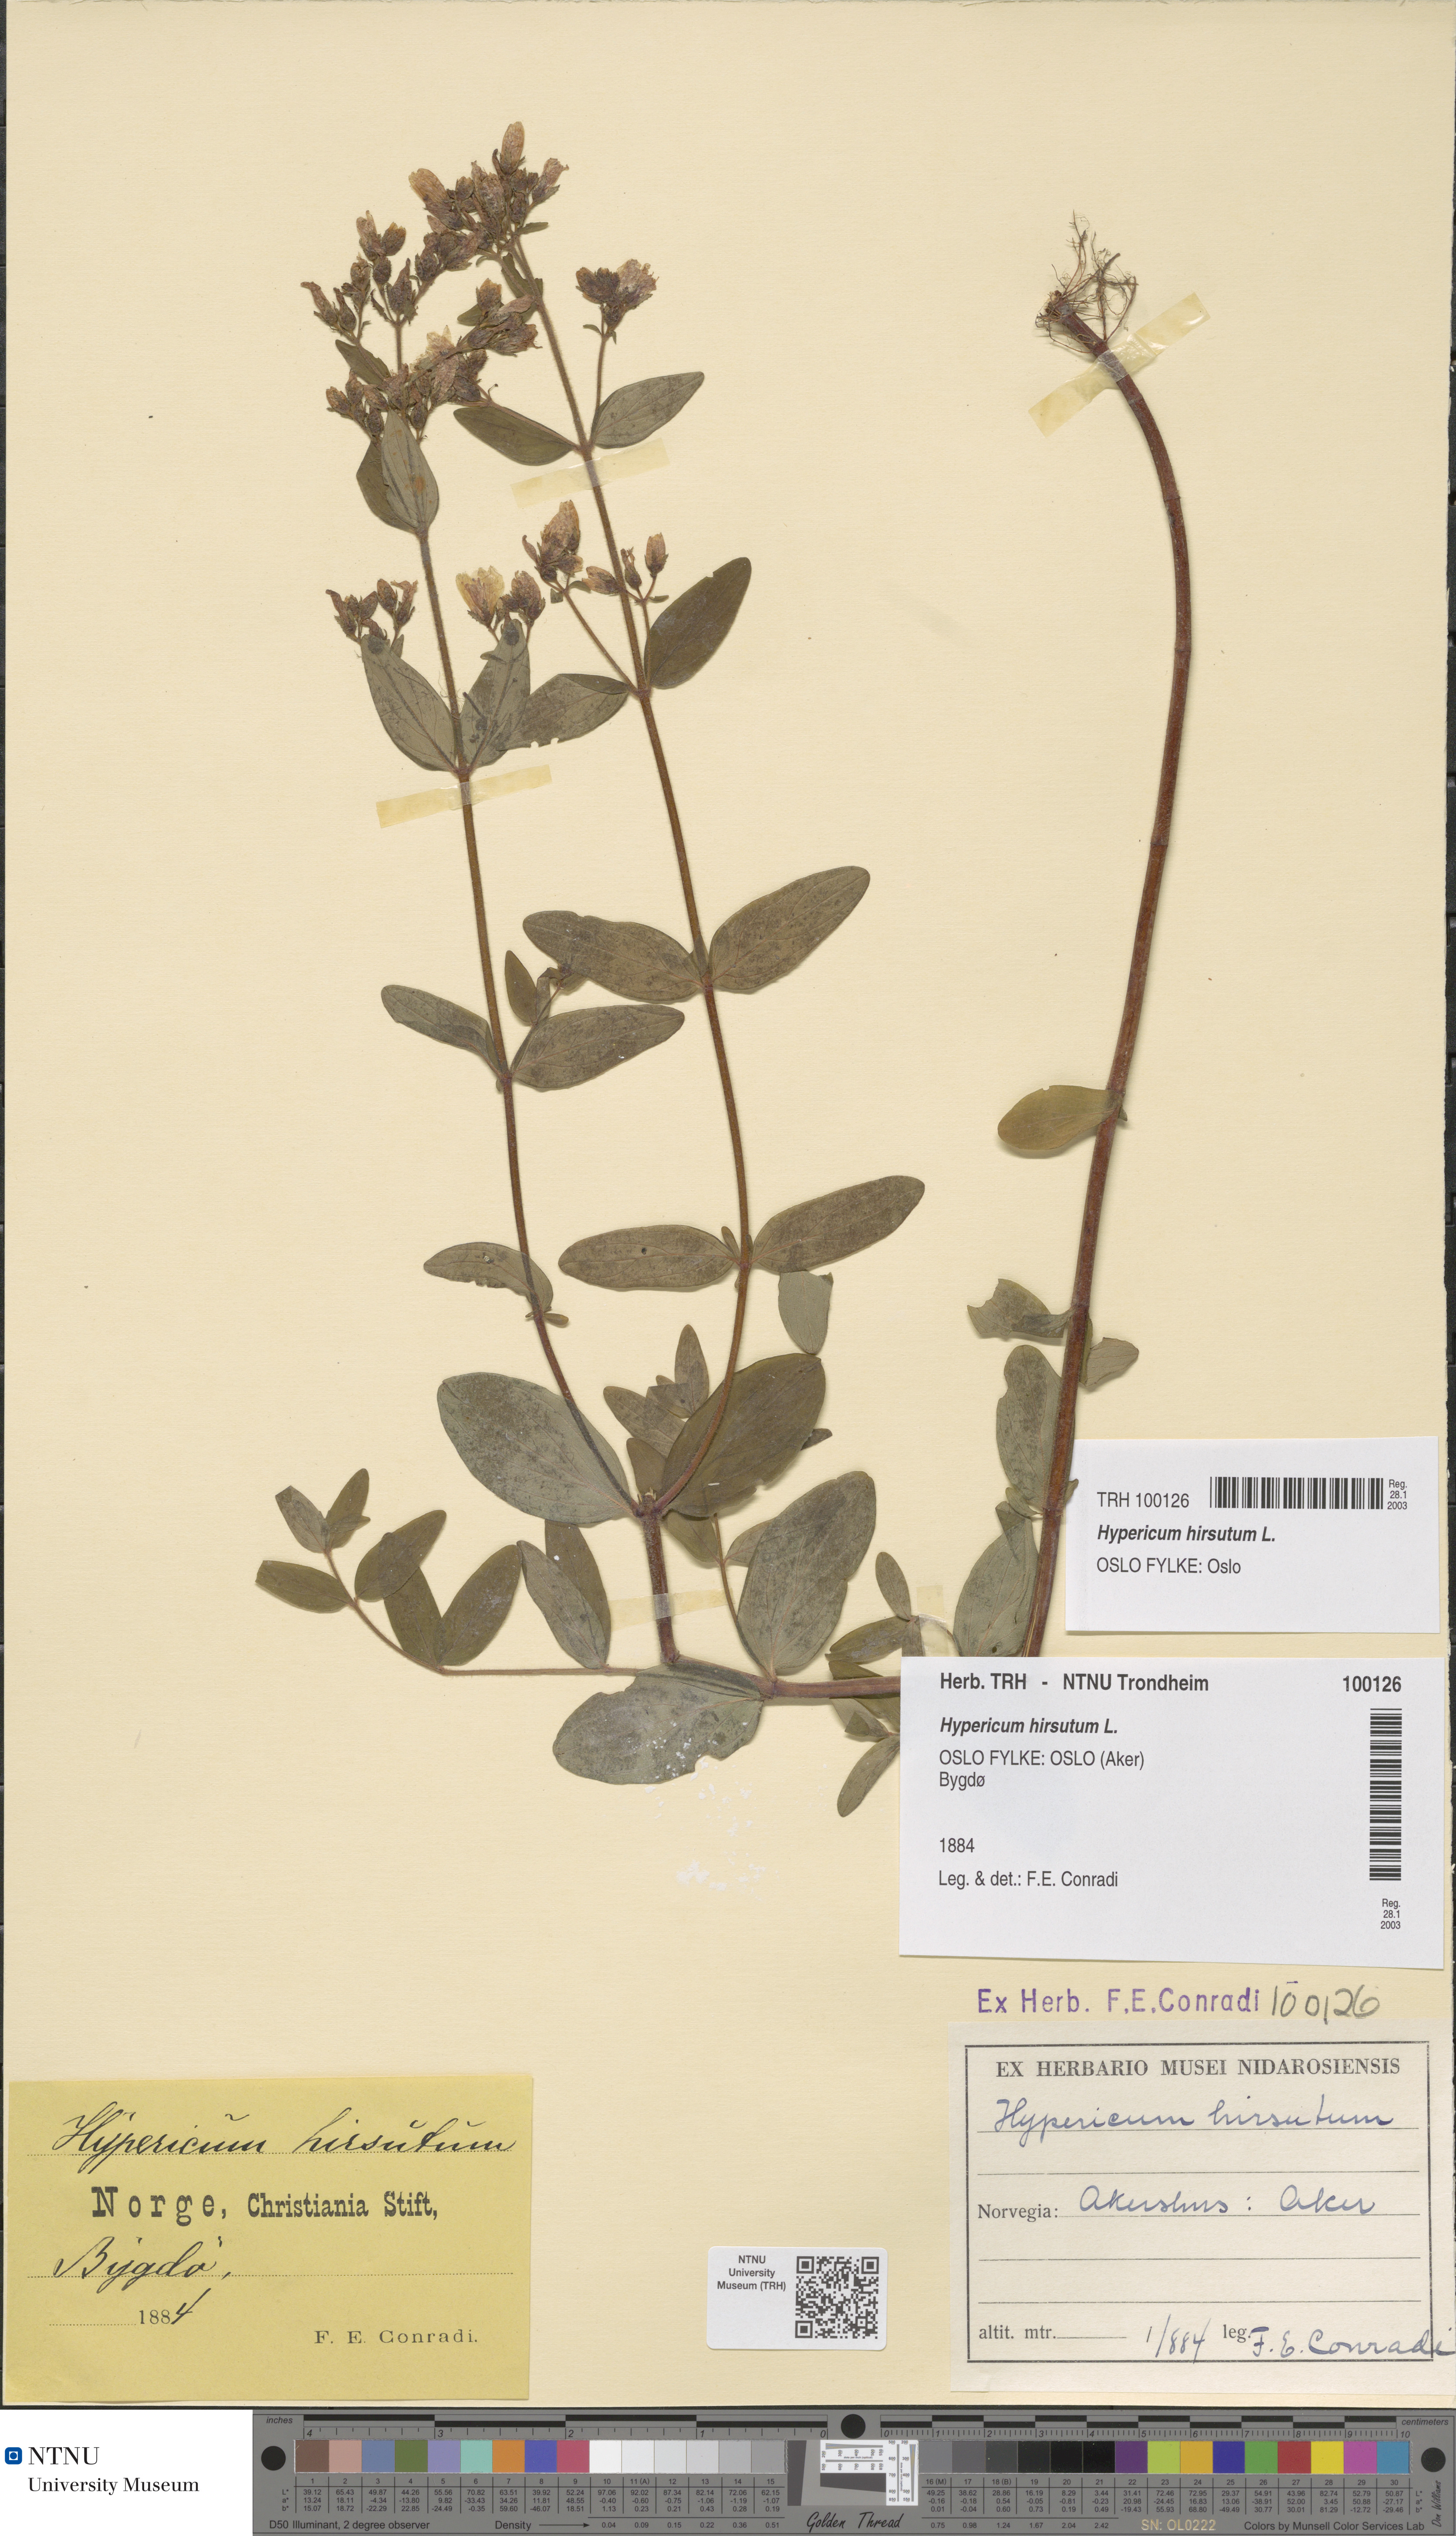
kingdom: Plantae
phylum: Tracheophyta
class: Magnoliopsida
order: Malpighiales
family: Hypericaceae
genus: Hypericum
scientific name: Hypericum hirsutum
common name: Hairy st. john's-wort
